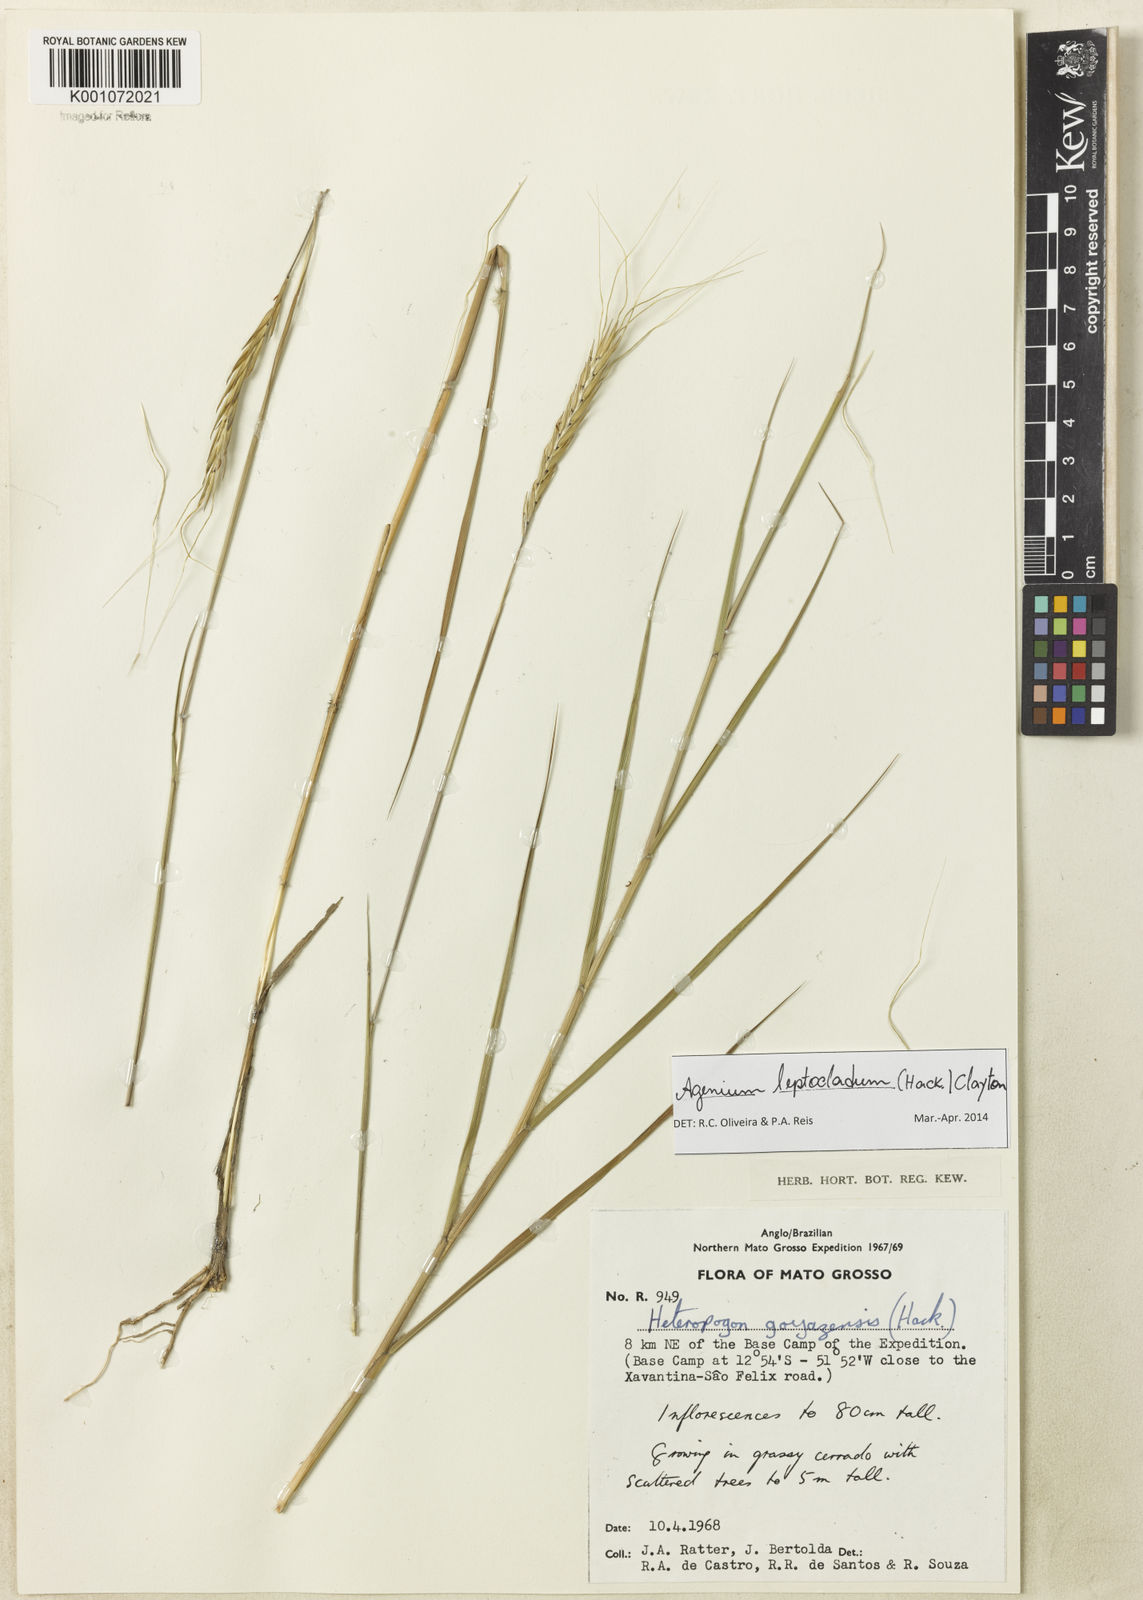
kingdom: Plantae
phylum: Tracheophyta
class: Liliopsida
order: Poales
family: Poaceae
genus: Agenium
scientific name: Agenium leptocladum
